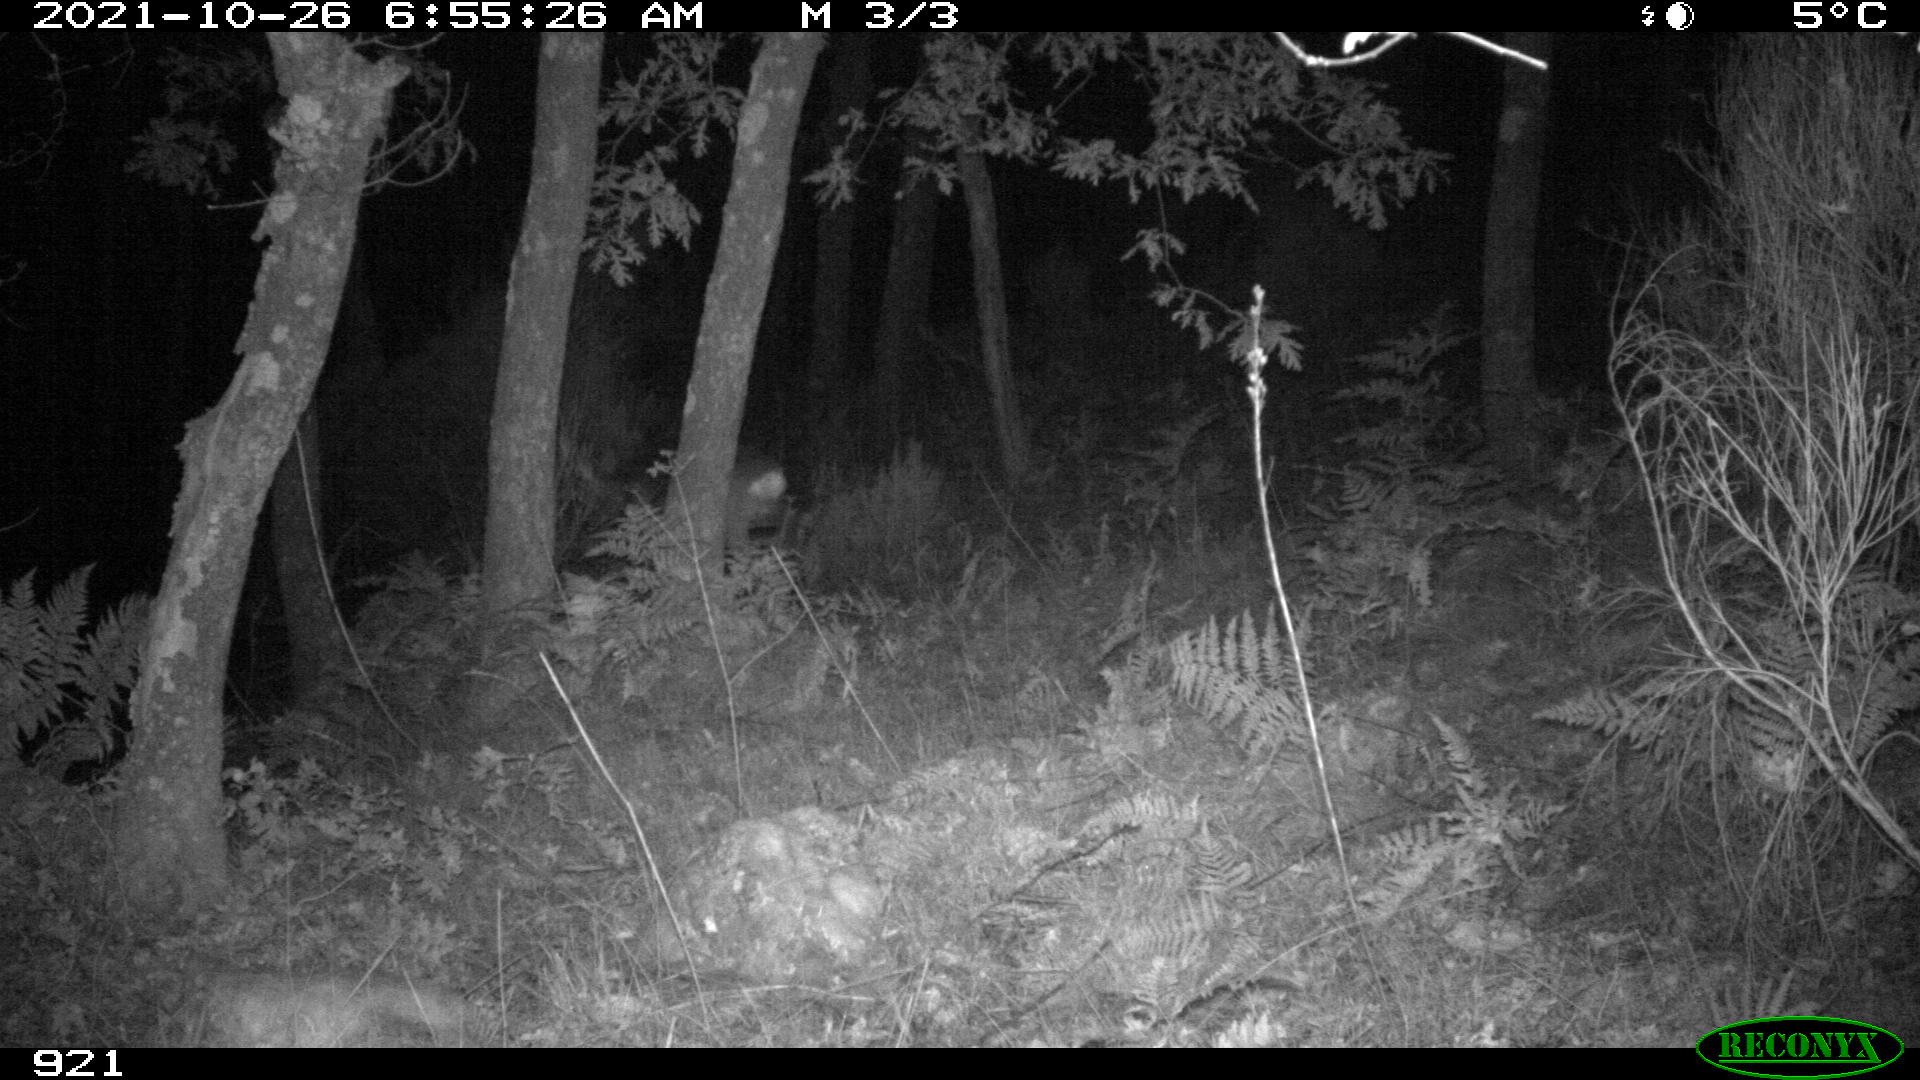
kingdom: Animalia
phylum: Chordata
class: Mammalia
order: Artiodactyla
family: Cervidae
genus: Capreolus
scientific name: Capreolus capreolus
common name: Western roe deer
